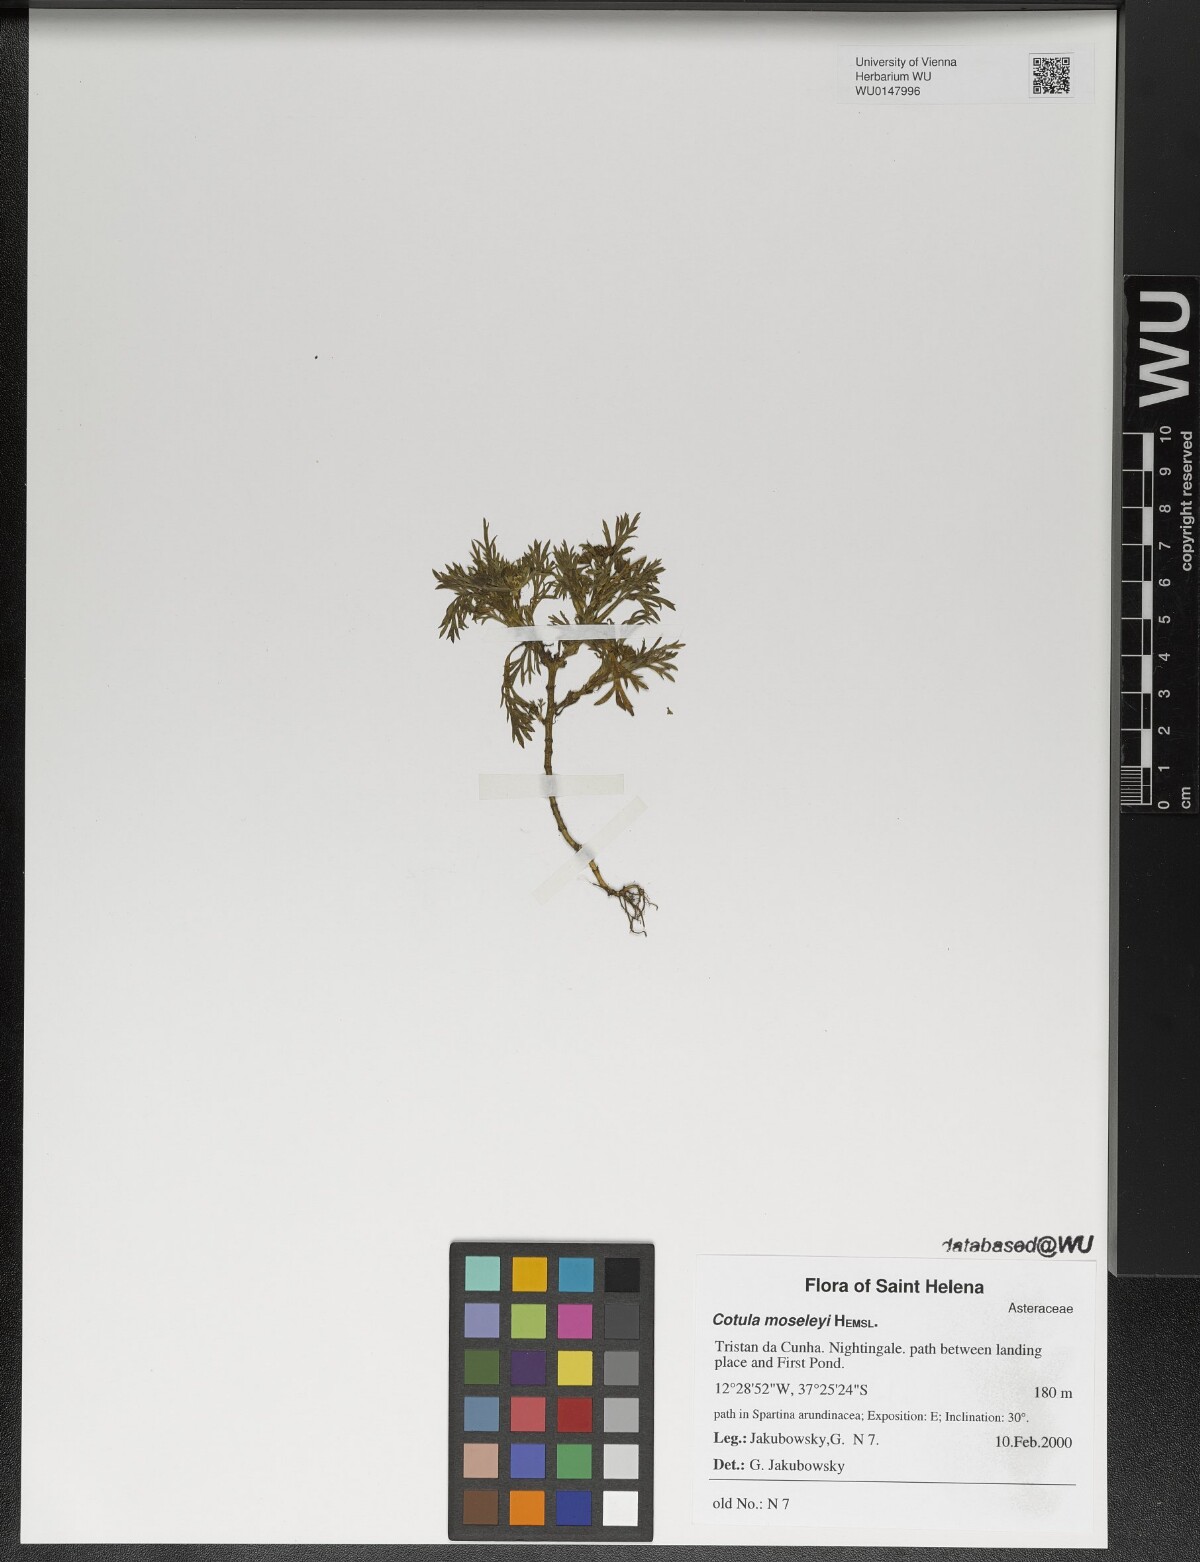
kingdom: Plantae
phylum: Tracheophyta
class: Magnoliopsida
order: Asterales
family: Asteraceae
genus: Cotula
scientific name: Cotula moseleyi
